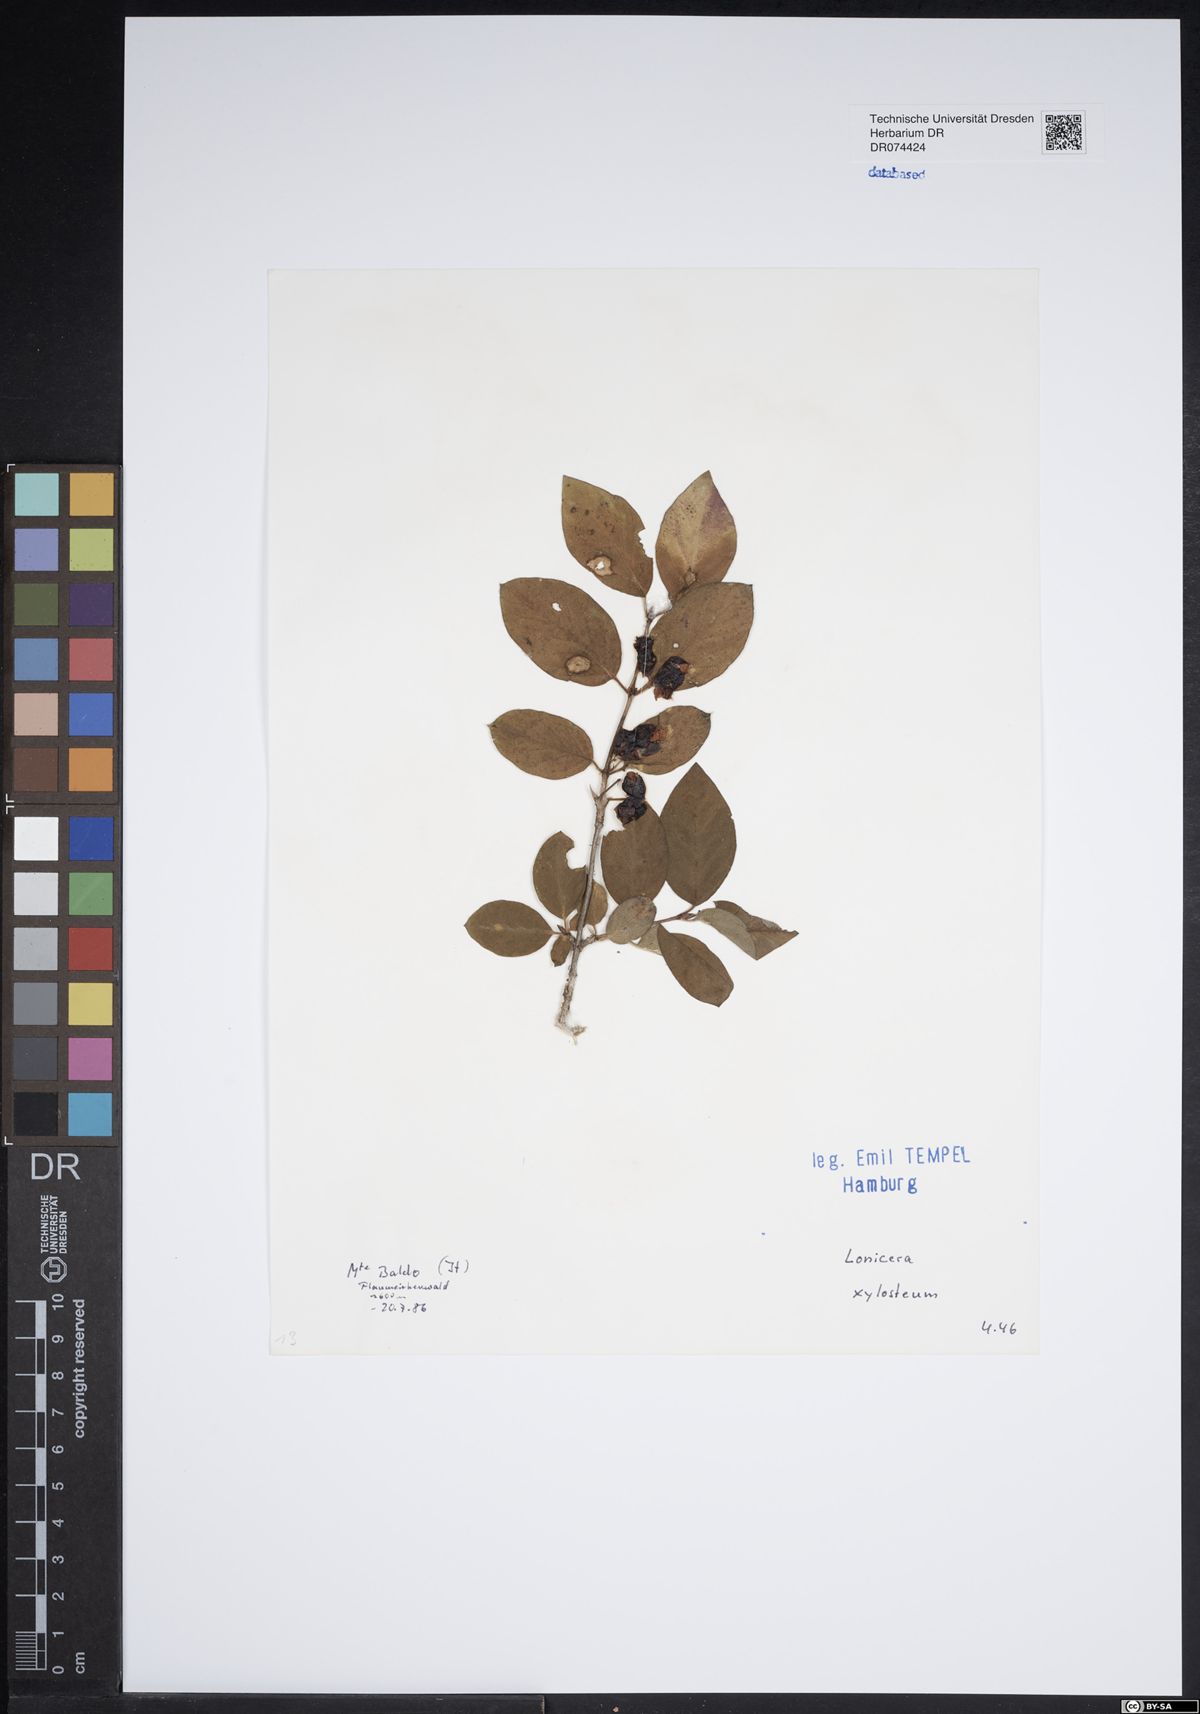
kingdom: Plantae
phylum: Tracheophyta
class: Magnoliopsida
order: Dipsacales
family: Caprifoliaceae
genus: Lonicera
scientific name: Lonicera xylosteum
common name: Fly honeysuckle
